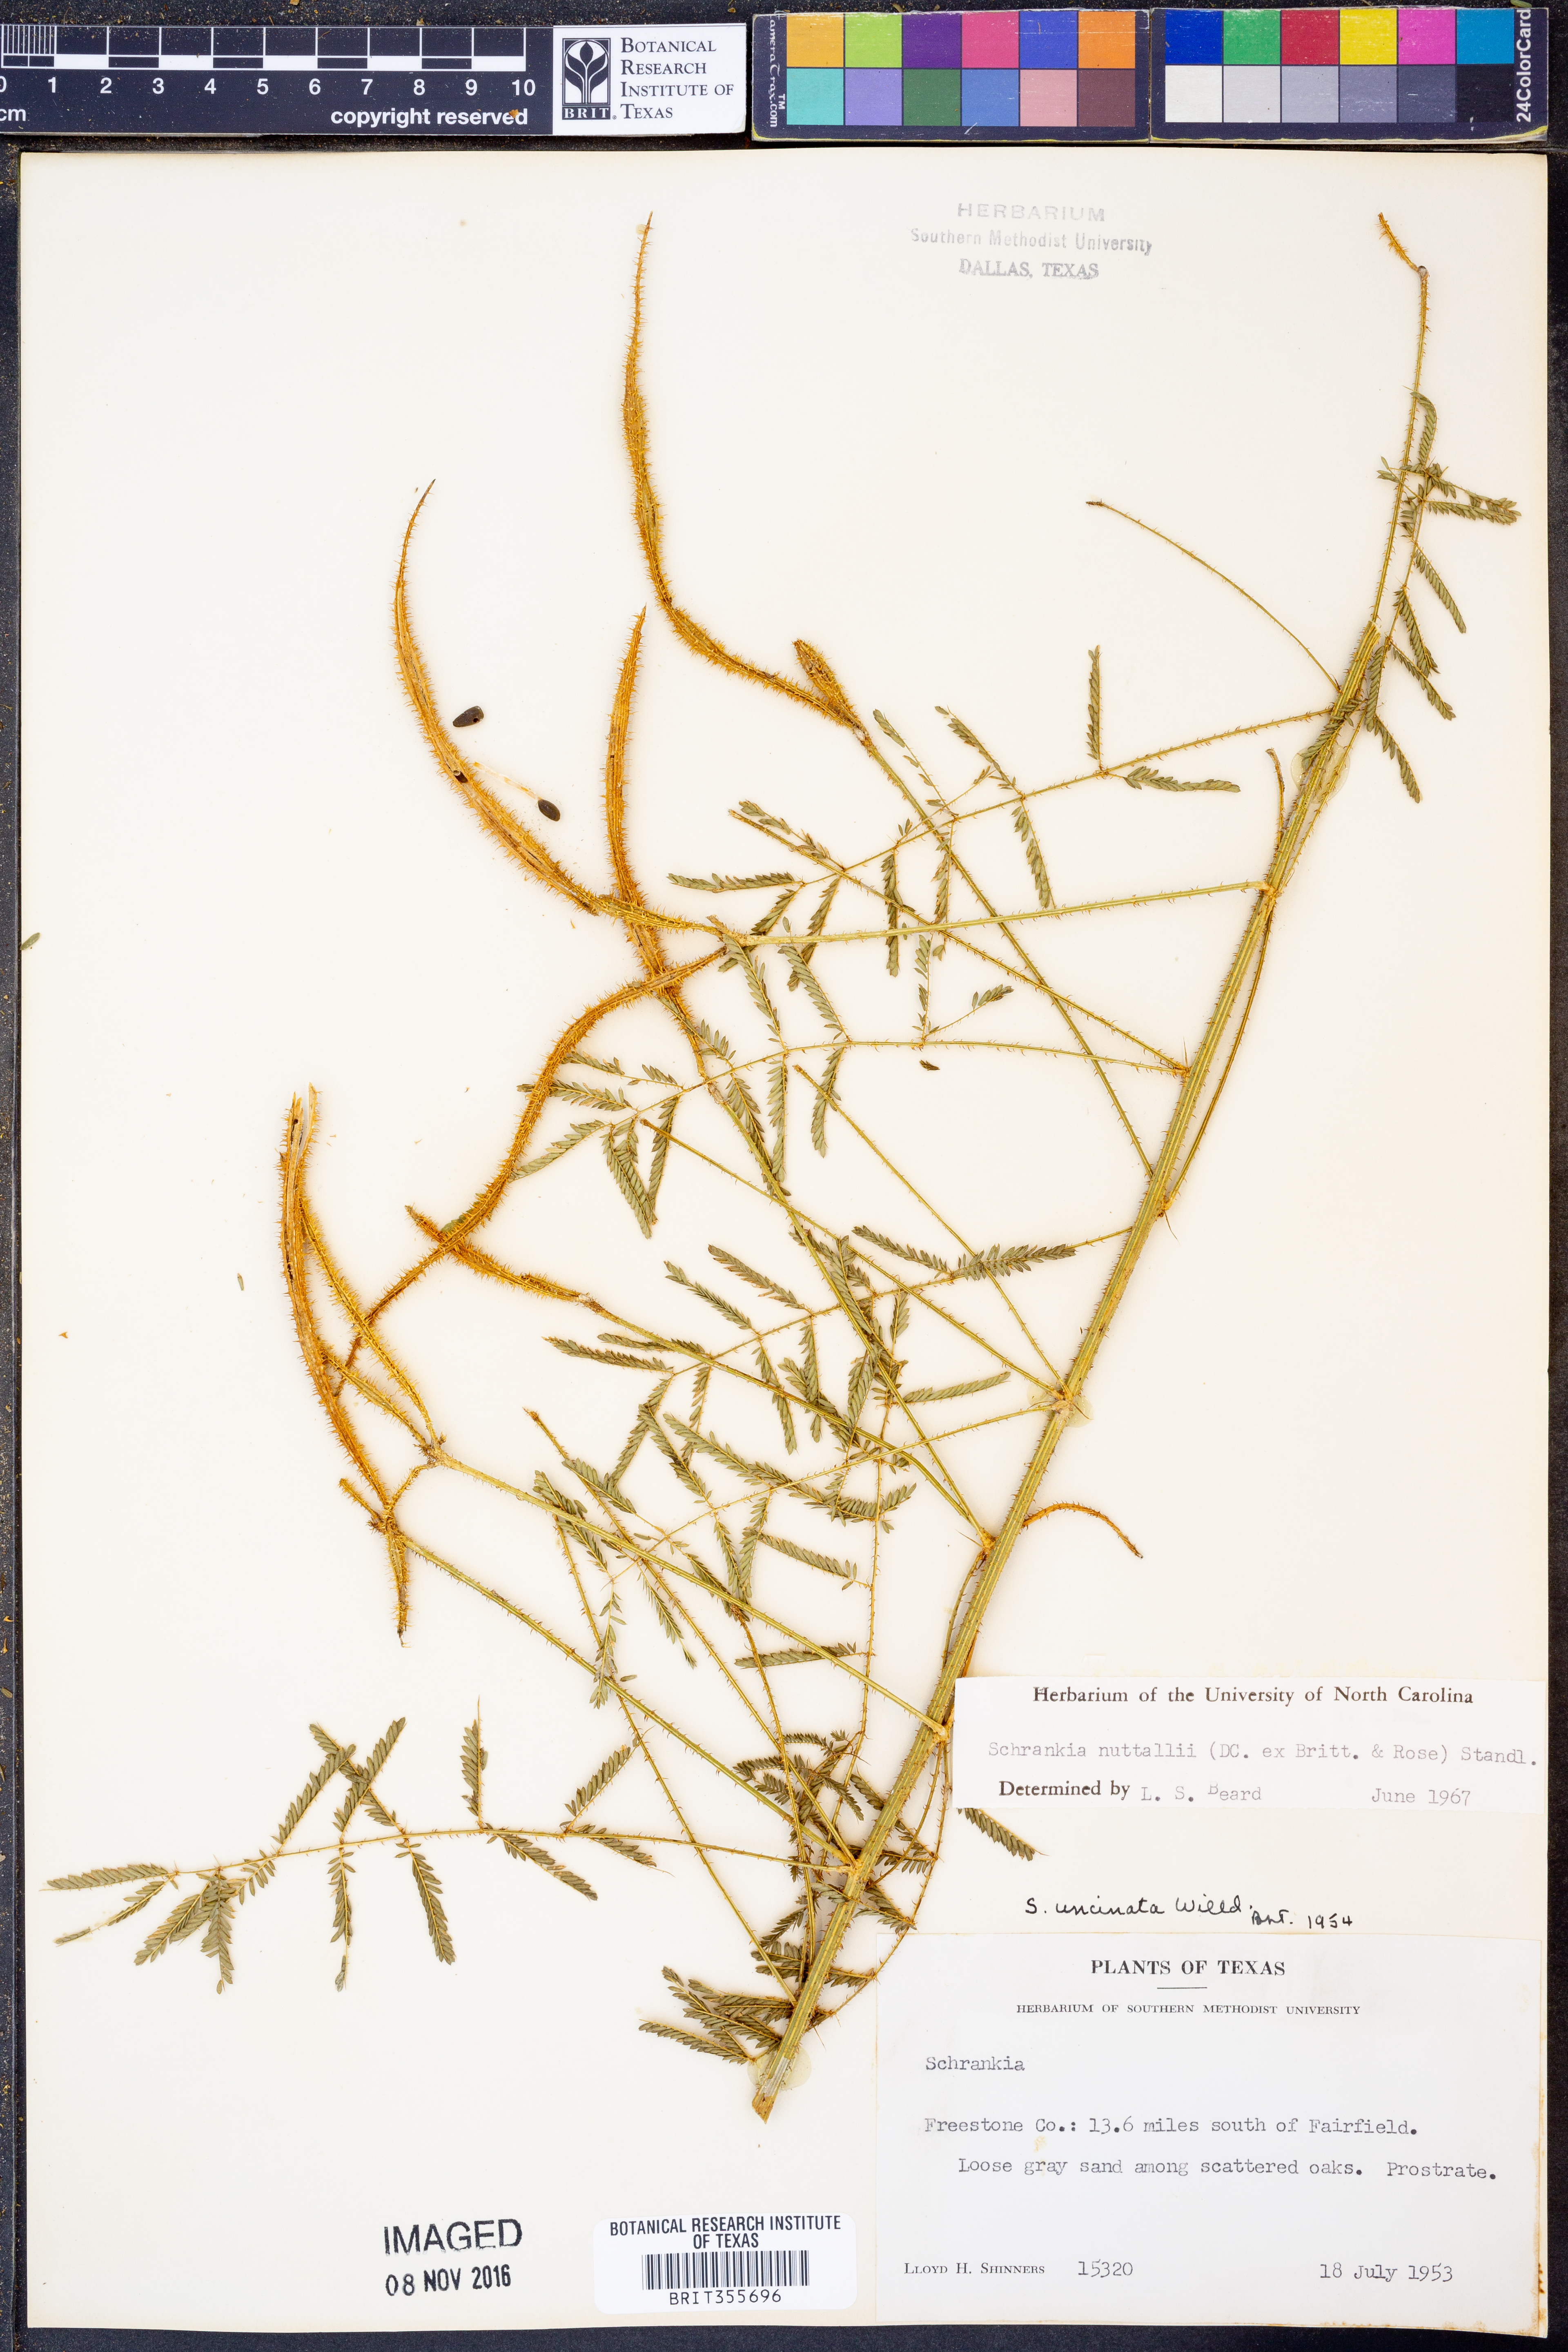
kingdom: Plantae
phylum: Tracheophyta
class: Magnoliopsida
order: Fabales
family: Fabaceae
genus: Mimosa
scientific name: Mimosa quadrivalvis
